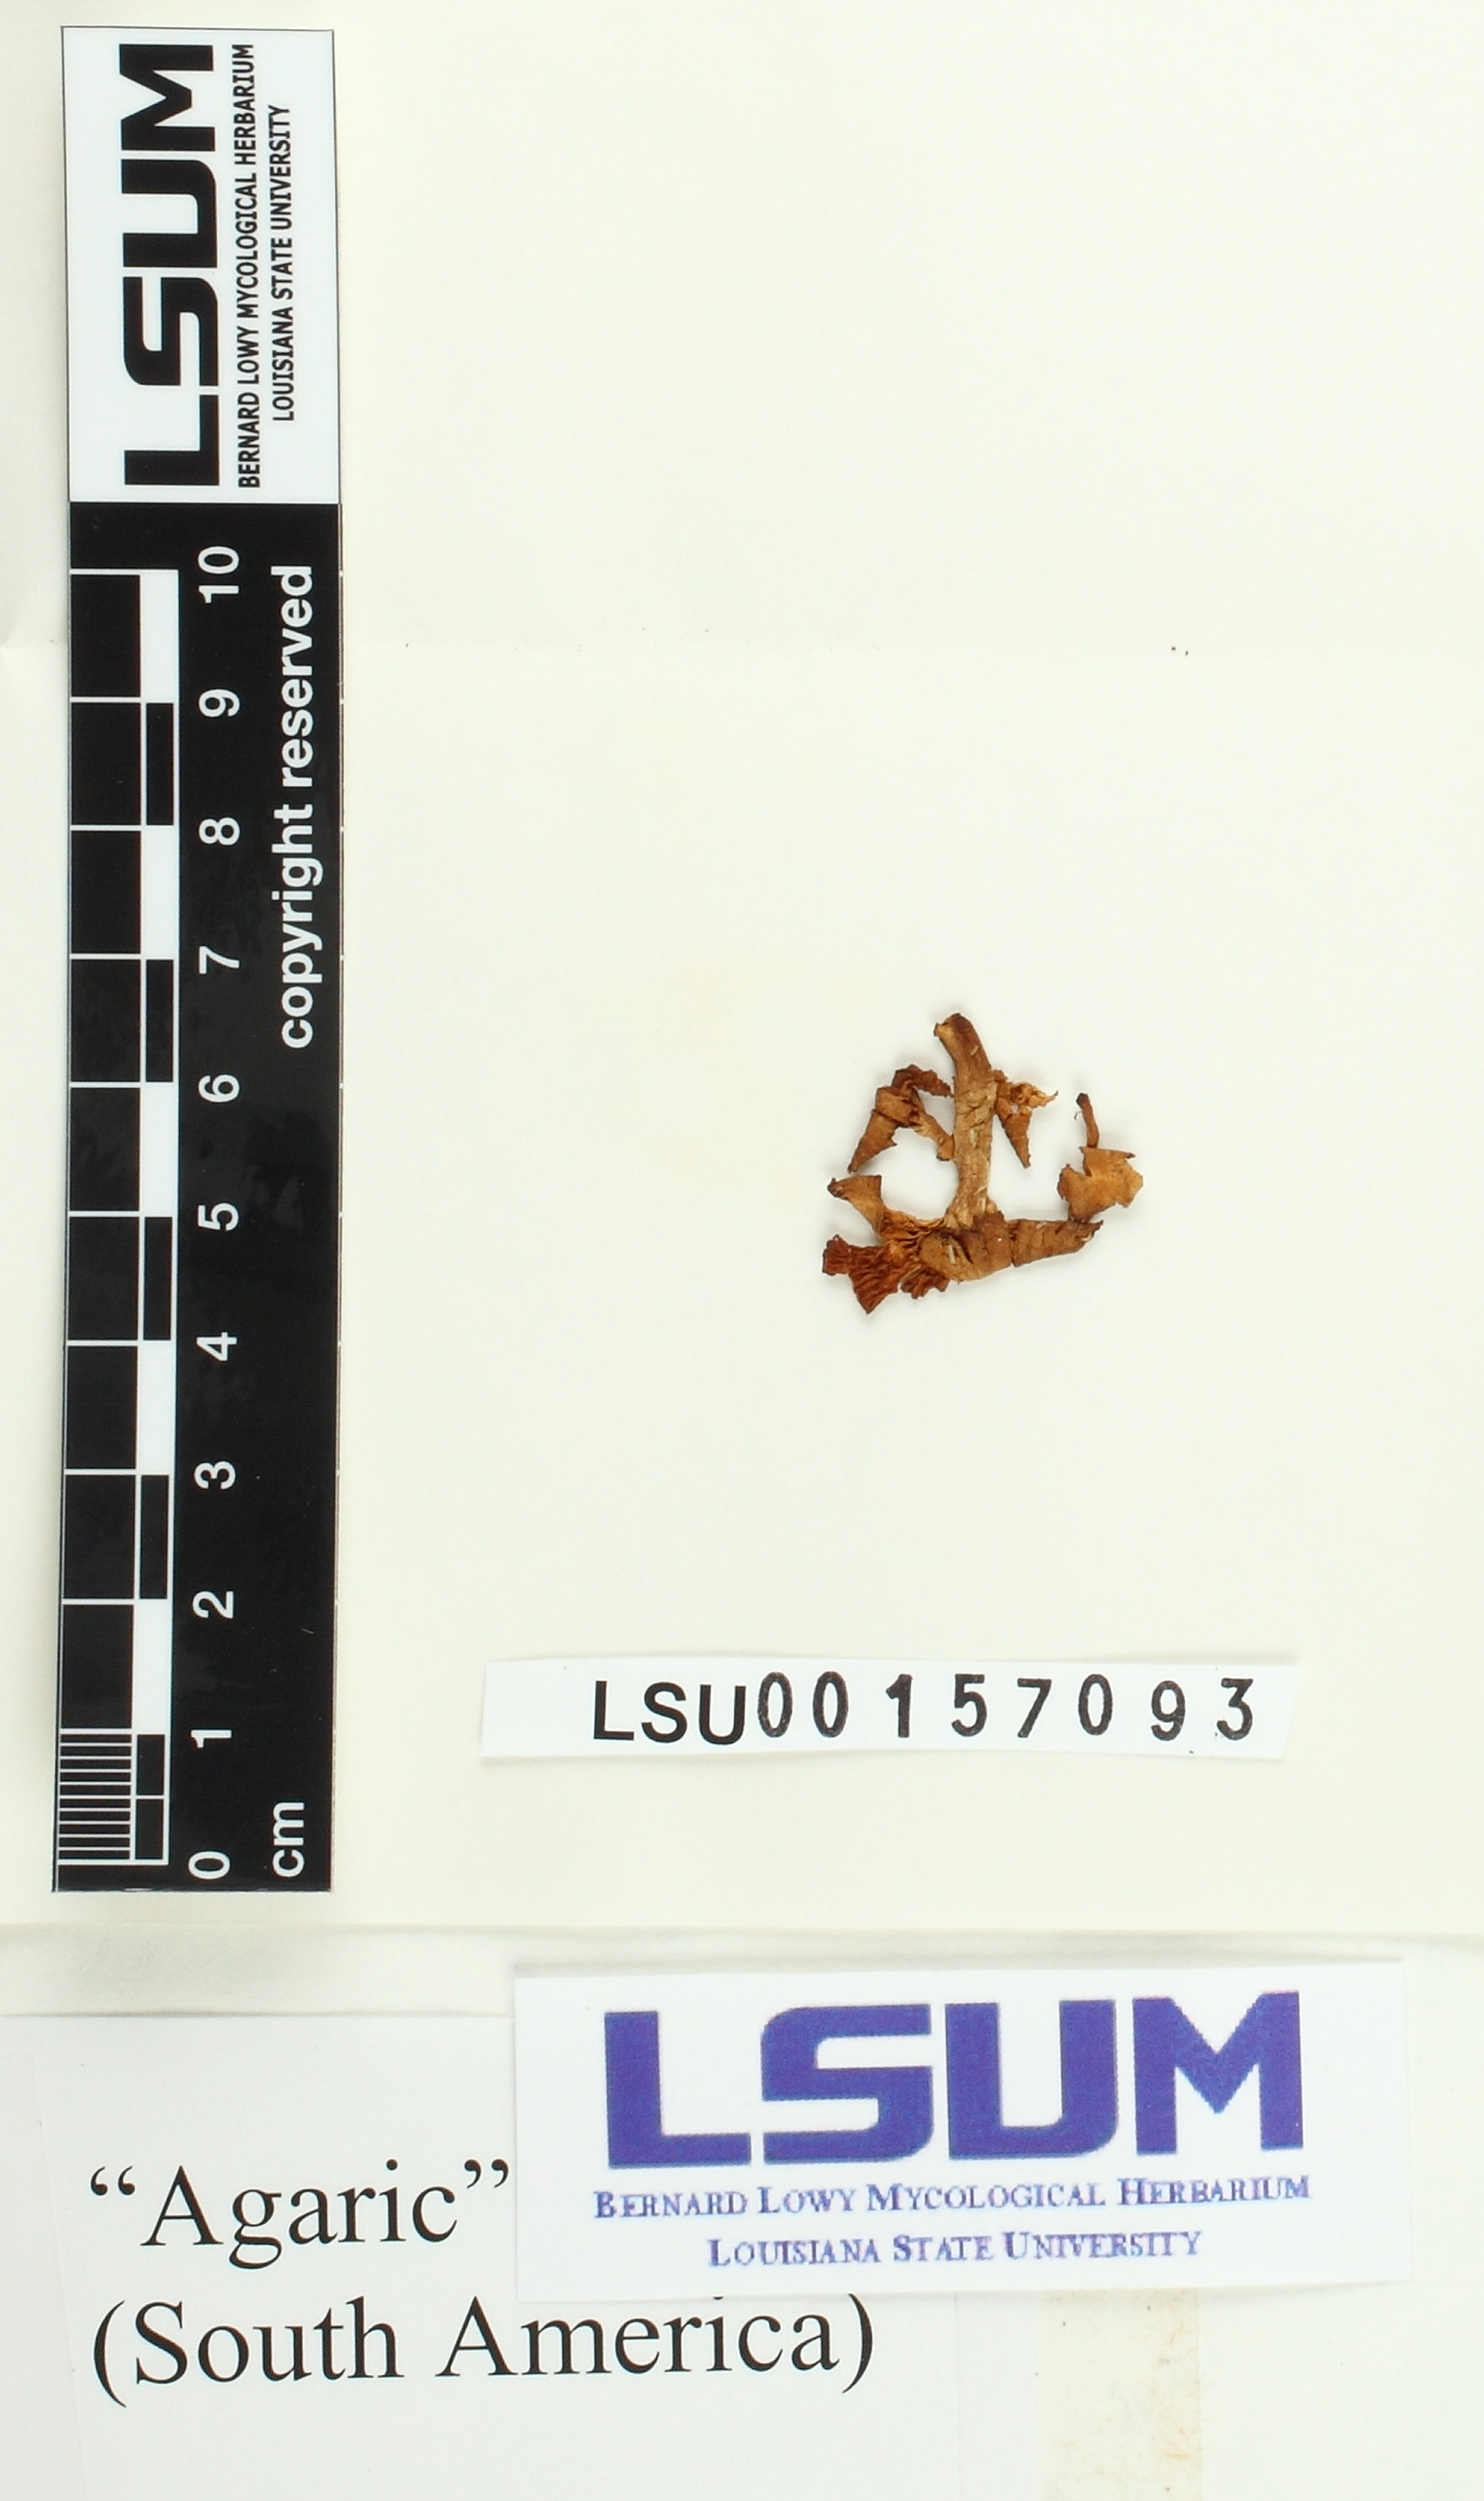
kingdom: Fungi
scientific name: Fungi
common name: Fungi
